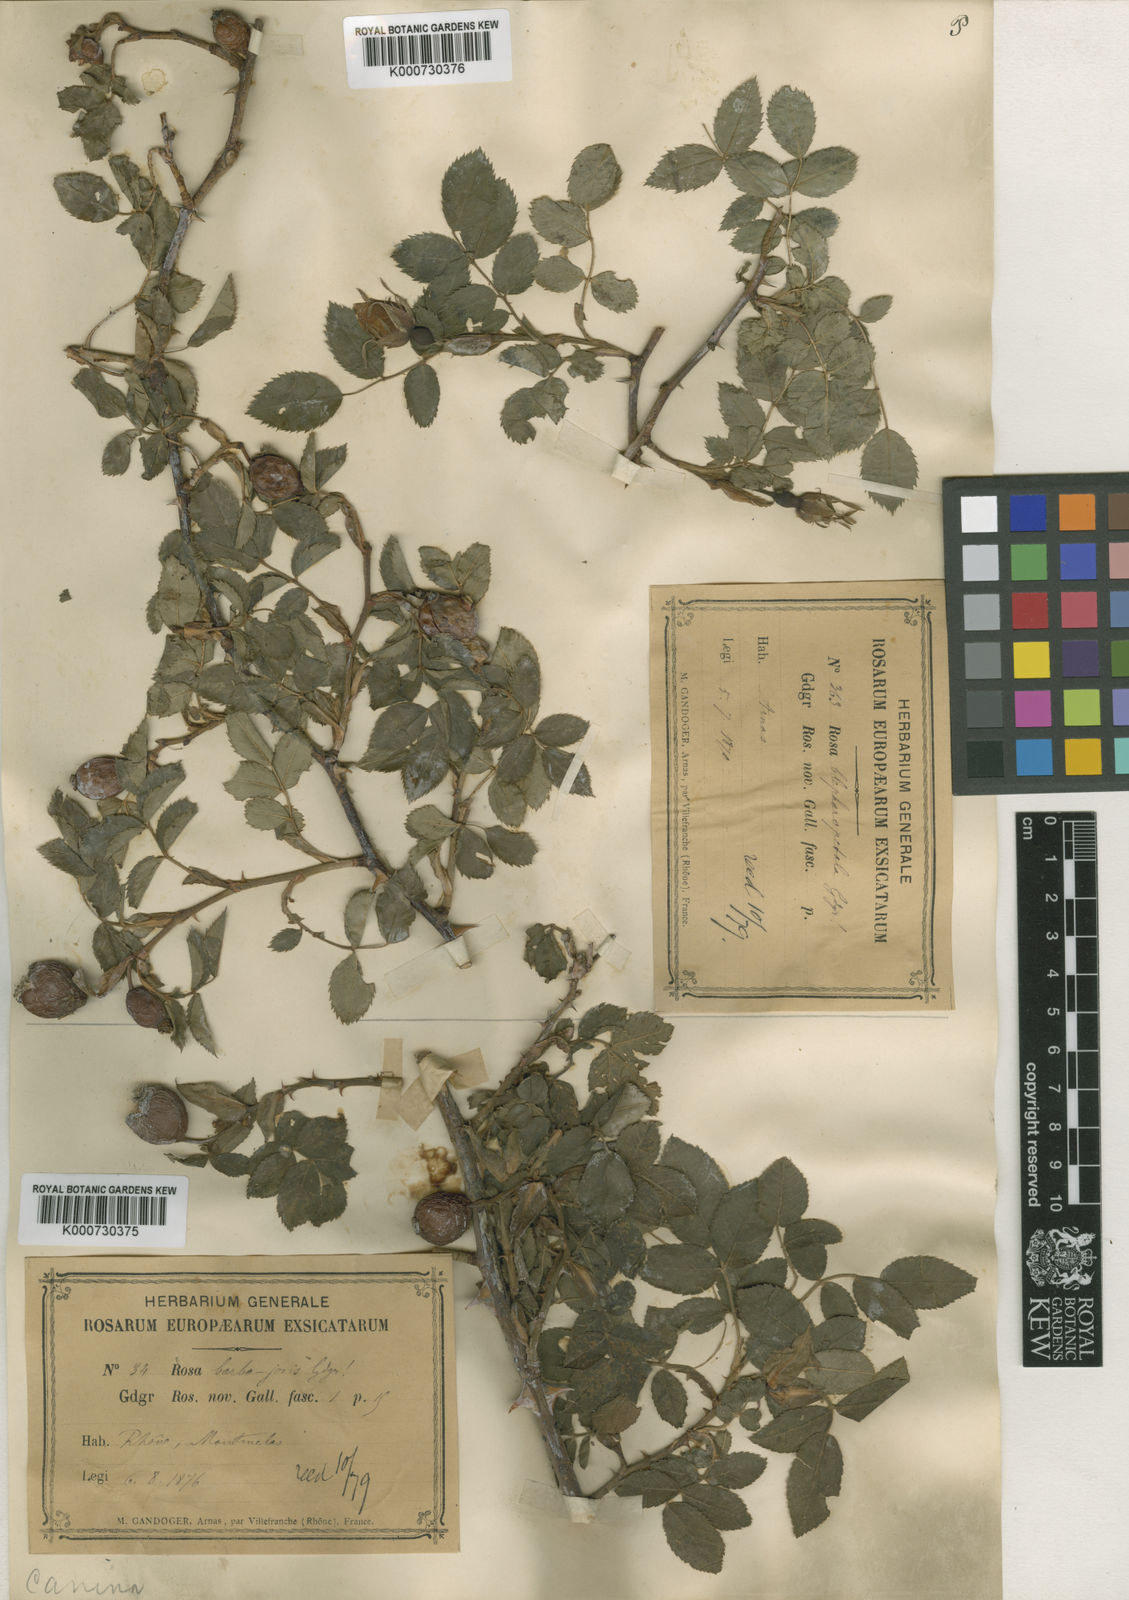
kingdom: Plantae
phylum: Tracheophyta
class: Magnoliopsida
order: Rosales
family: Rosaceae
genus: Rosa
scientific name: Rosa canina
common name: Dog rose
